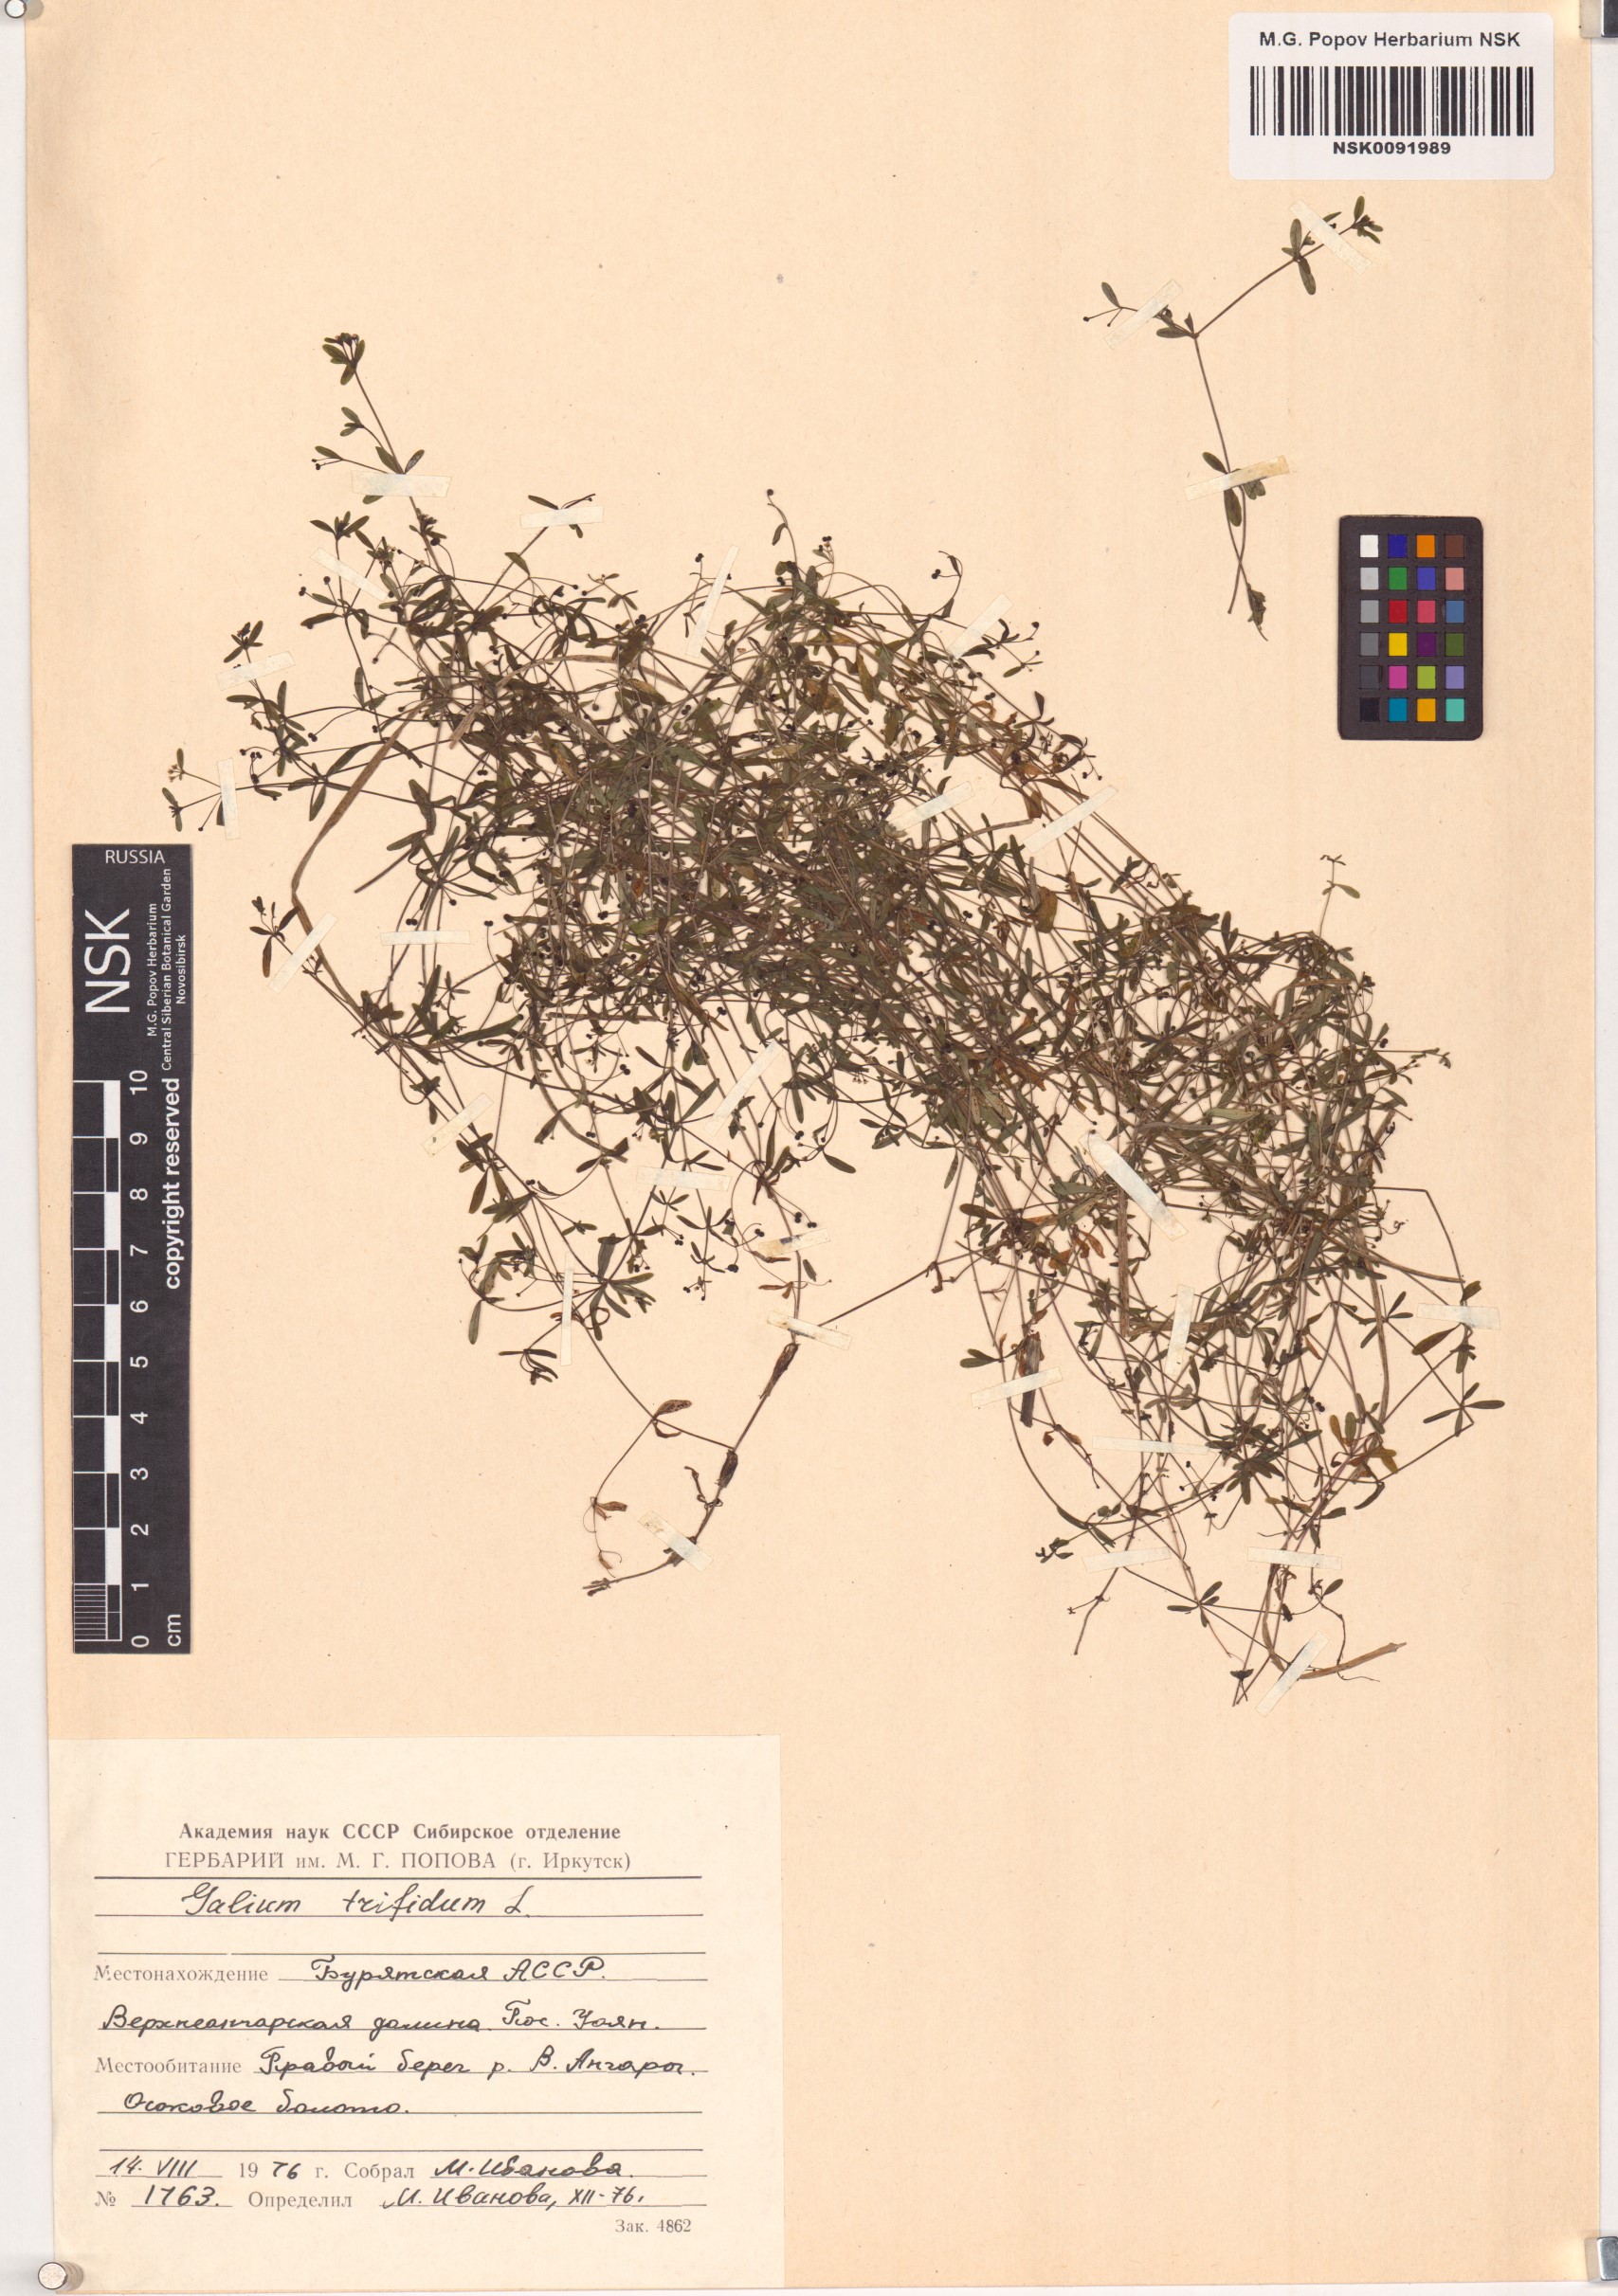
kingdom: Plantae
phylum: Tracheophyta
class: Magnoliopsida
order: Gentianales
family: Rubiaceae
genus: Galium
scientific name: Galium trifidum
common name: Small bedstraw
